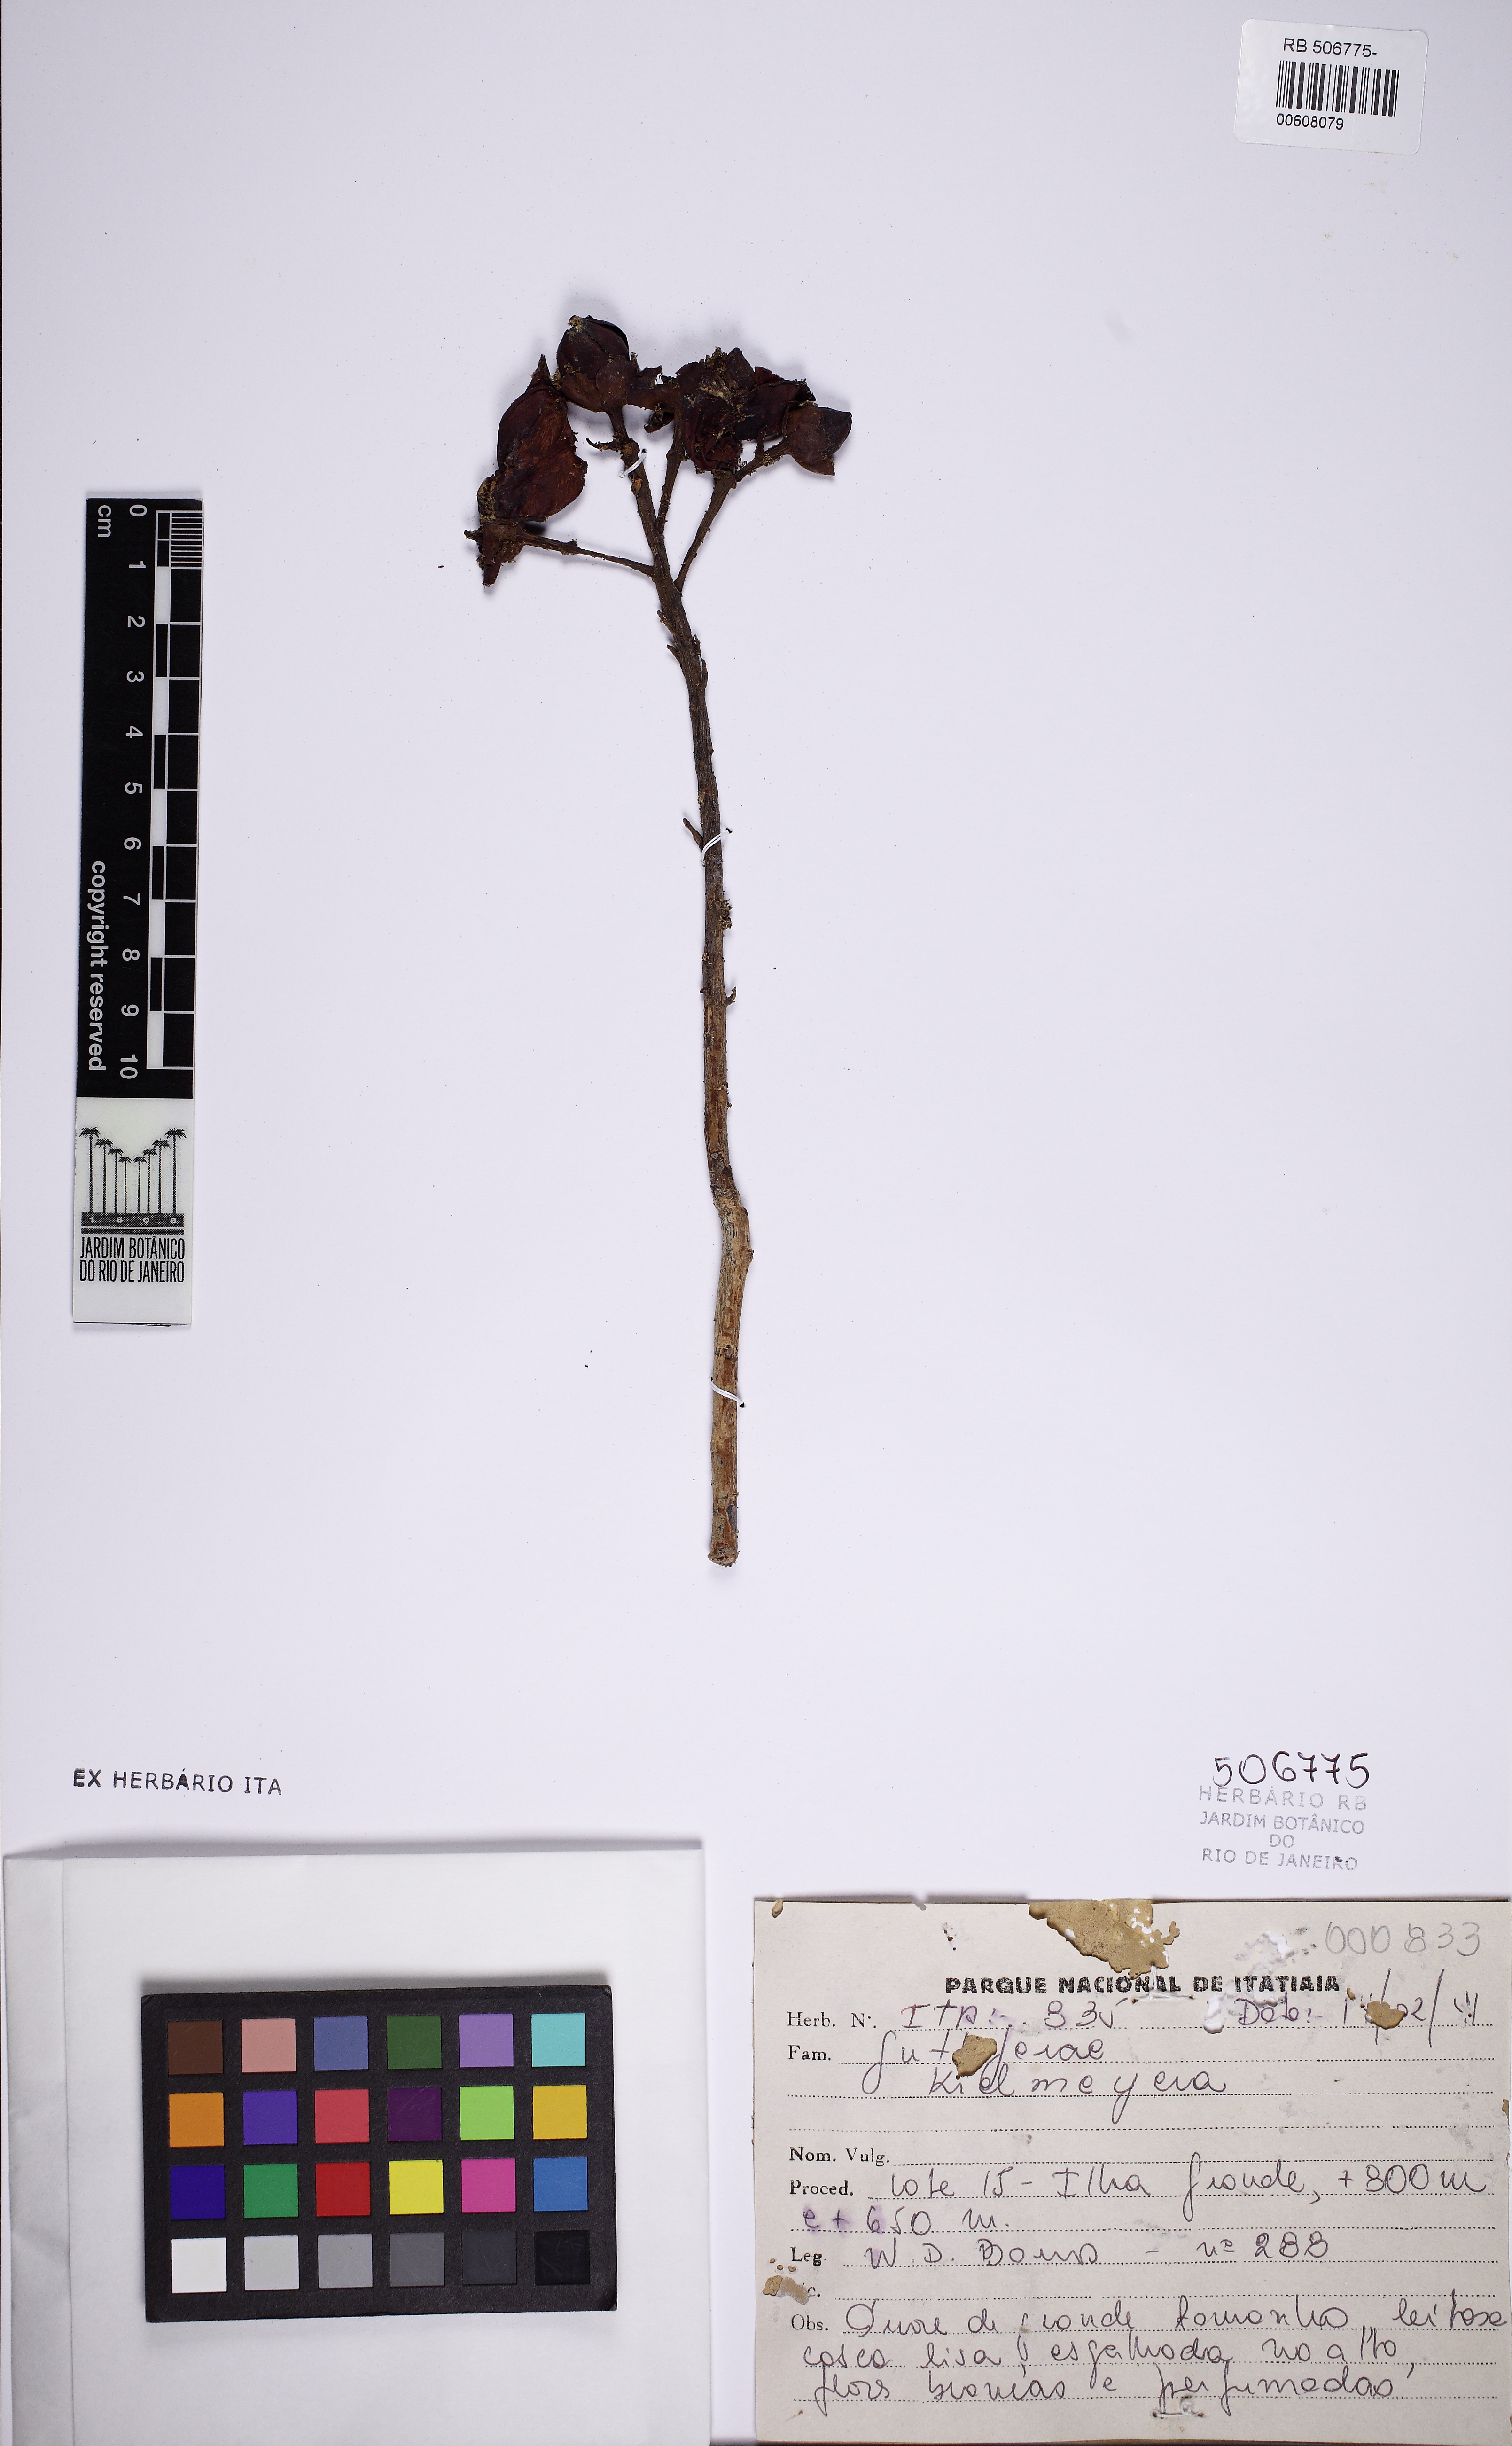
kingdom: Plantae
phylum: Tracheophyta
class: Magnoliopsida
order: Malpighiales
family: Calophyllaceae
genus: Kielmeyera
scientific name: Kielmeyera rizziniana
